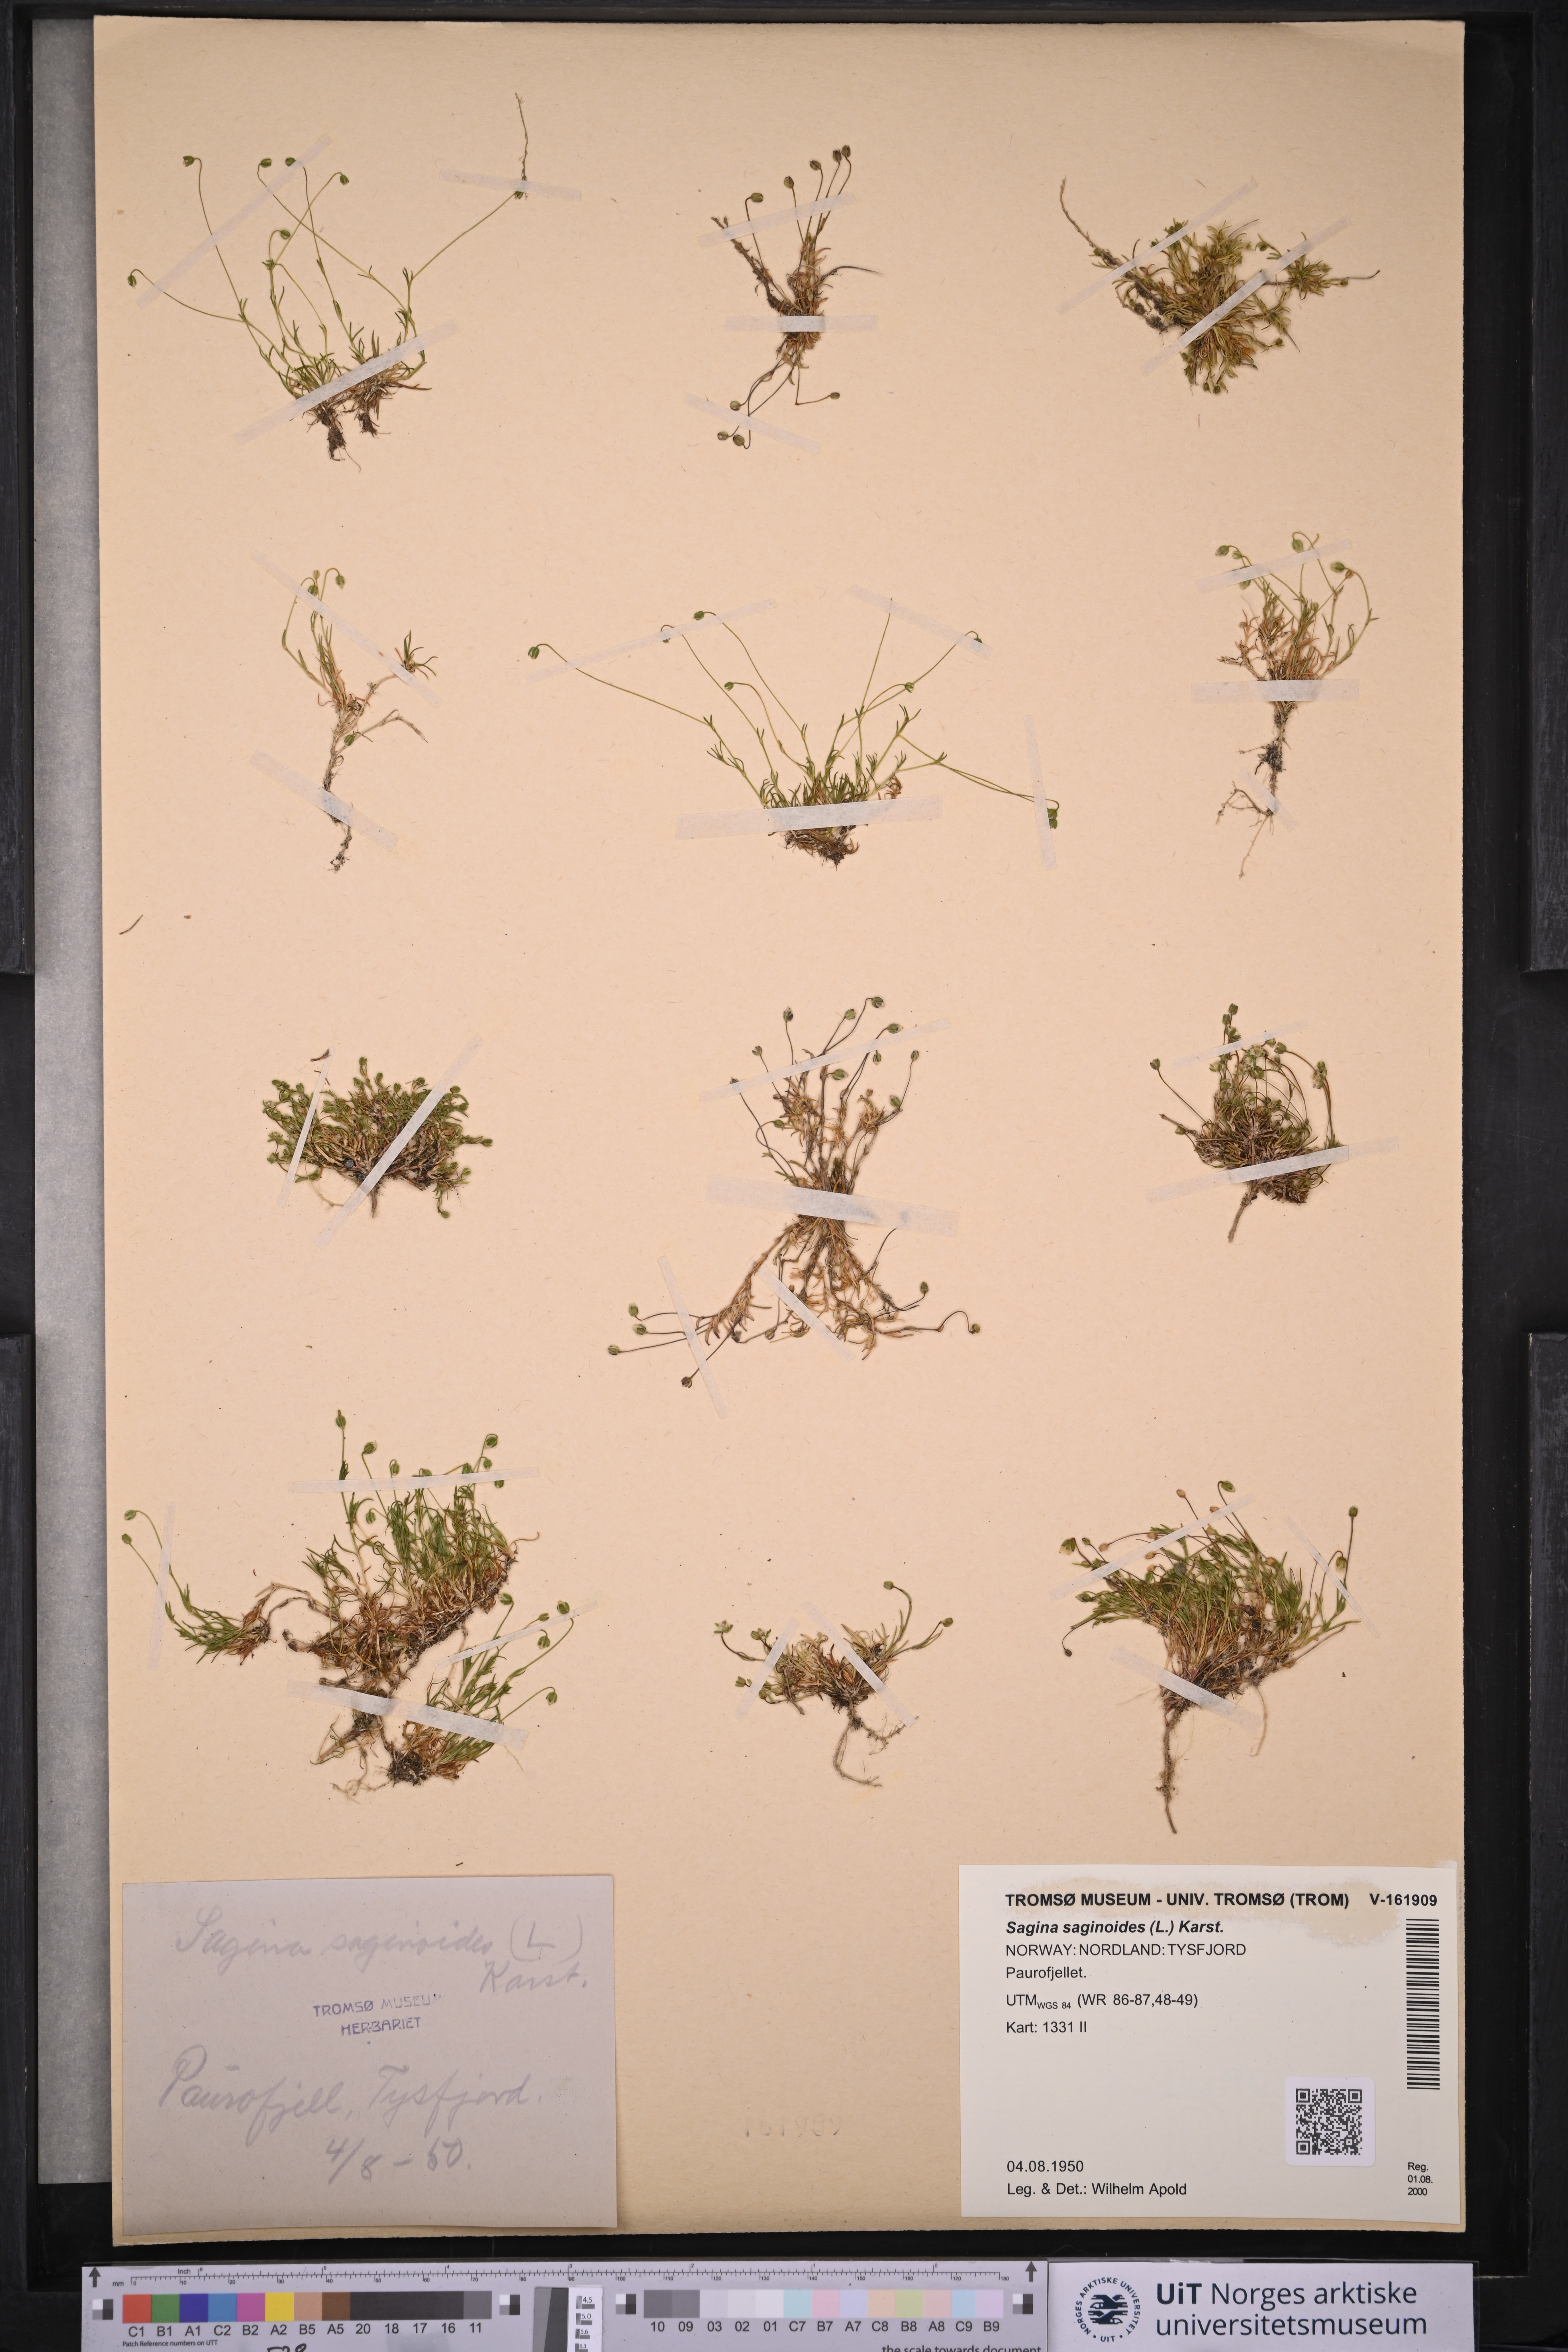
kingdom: Plantae
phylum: Tracheophyta
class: Magnoliopsida
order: Caryophyllales
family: Caryophyllaceae
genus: Sagina
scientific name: Sagina saginoides
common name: Alpine pearlwort
